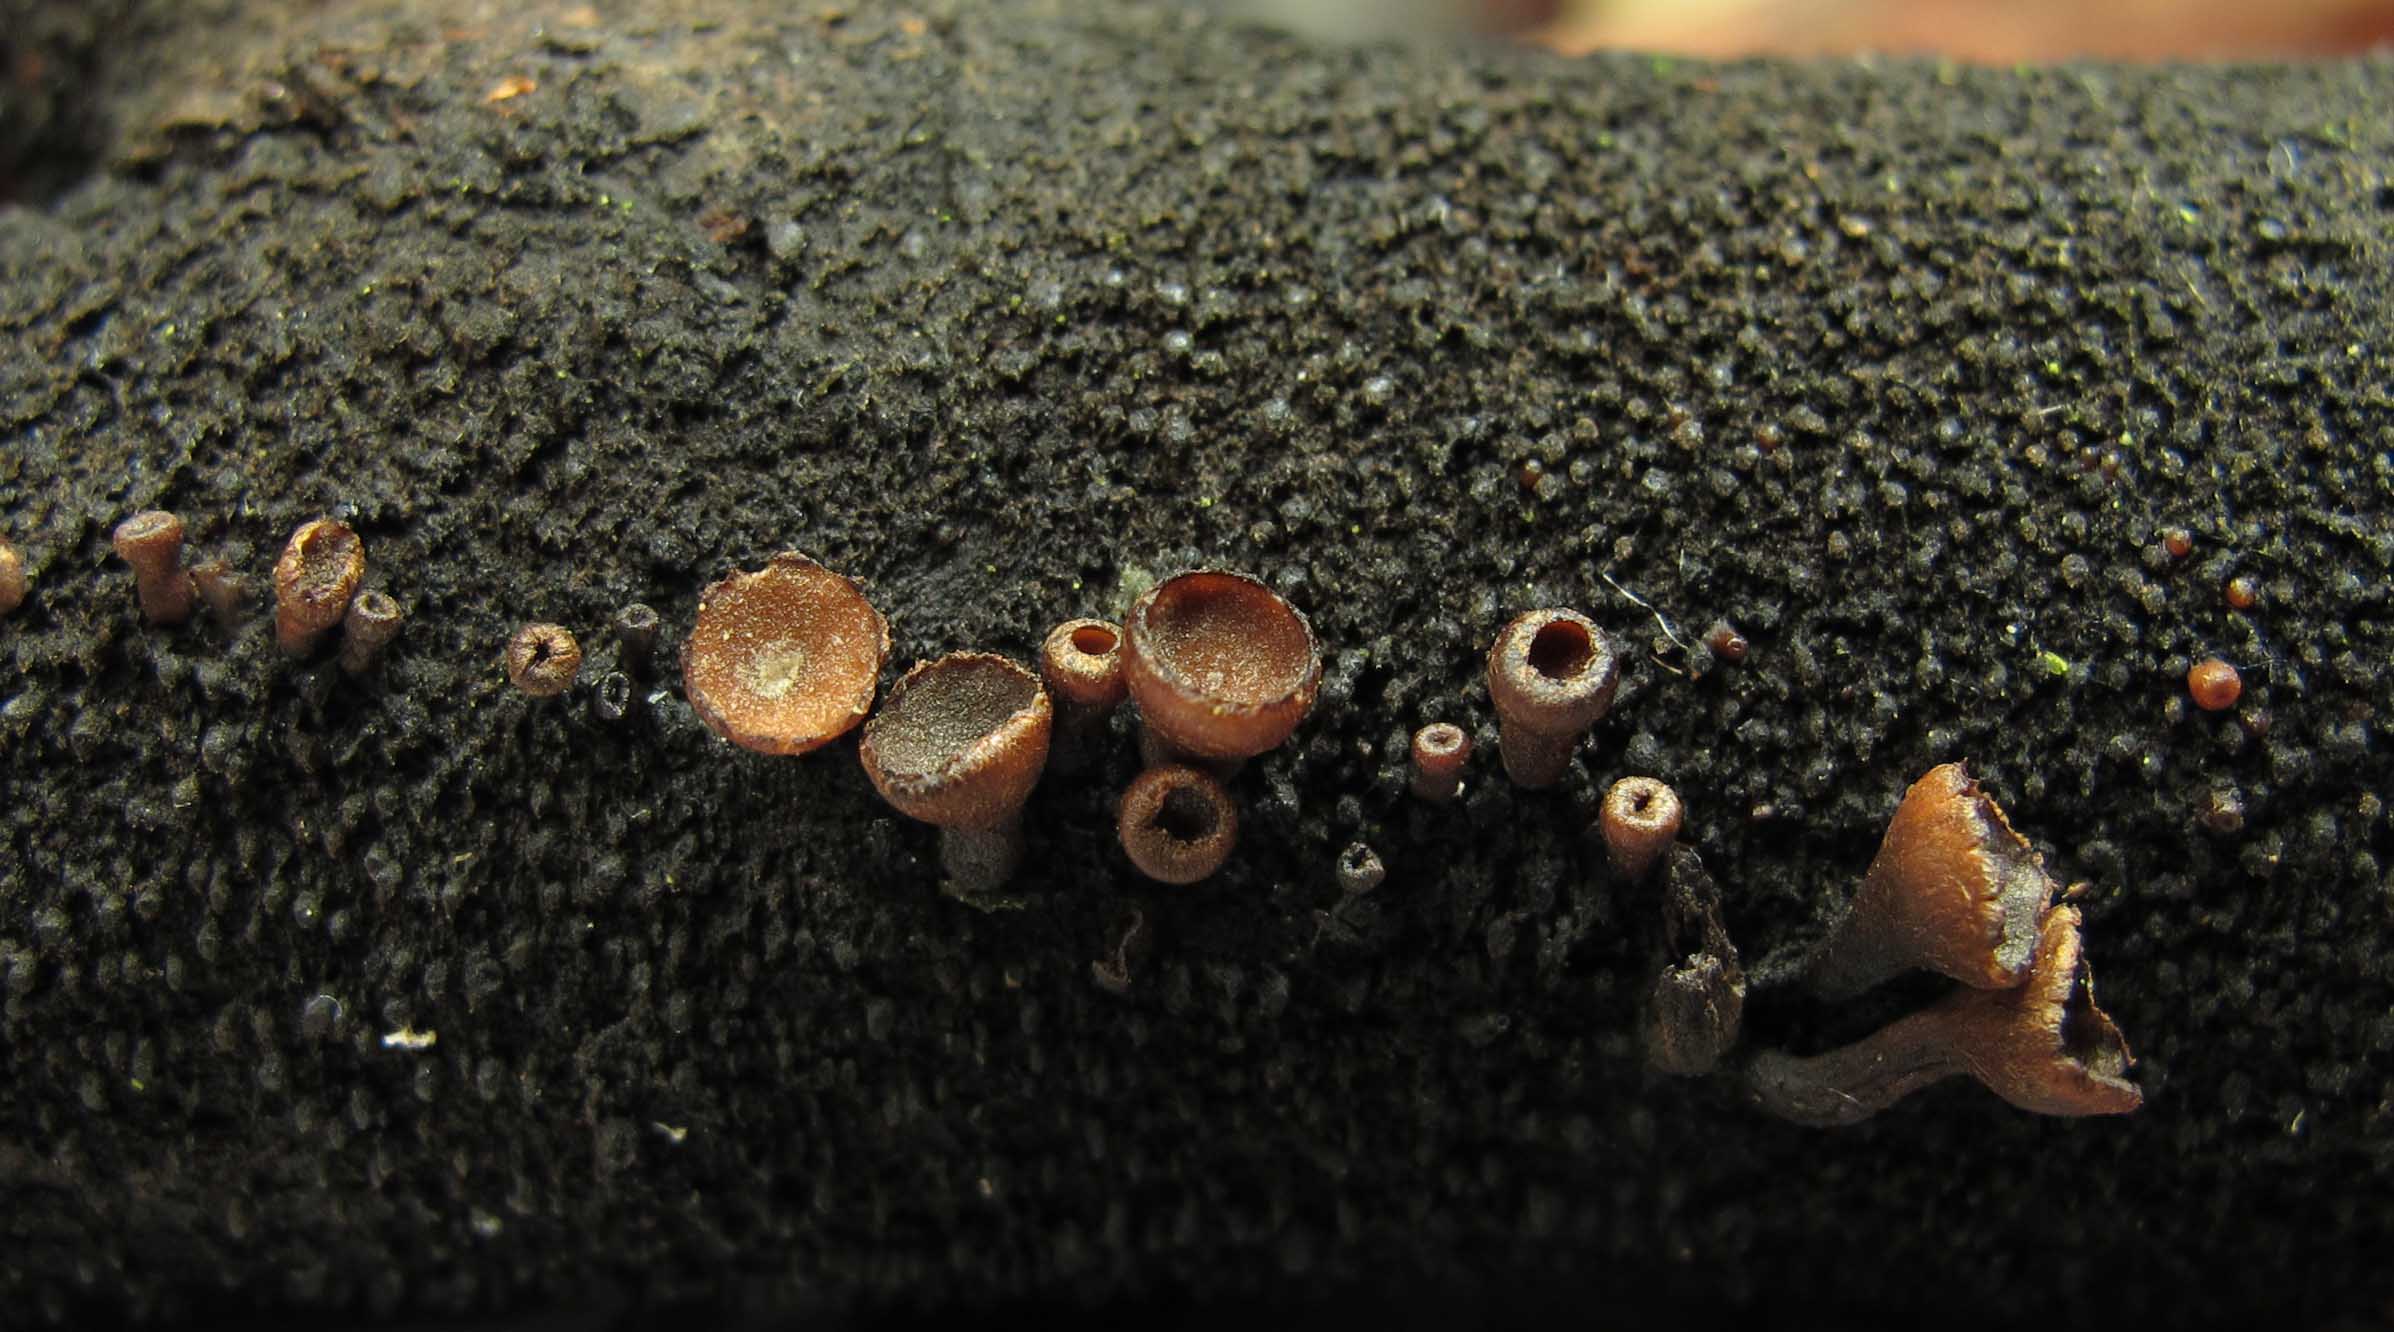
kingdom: Fungi
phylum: Ascomycota
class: Leotiomycetes
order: Helotiales
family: Rutstroemiaceae
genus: Dencoeliopsis
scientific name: Dencoeliopsis johnstonii
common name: birkeskive
